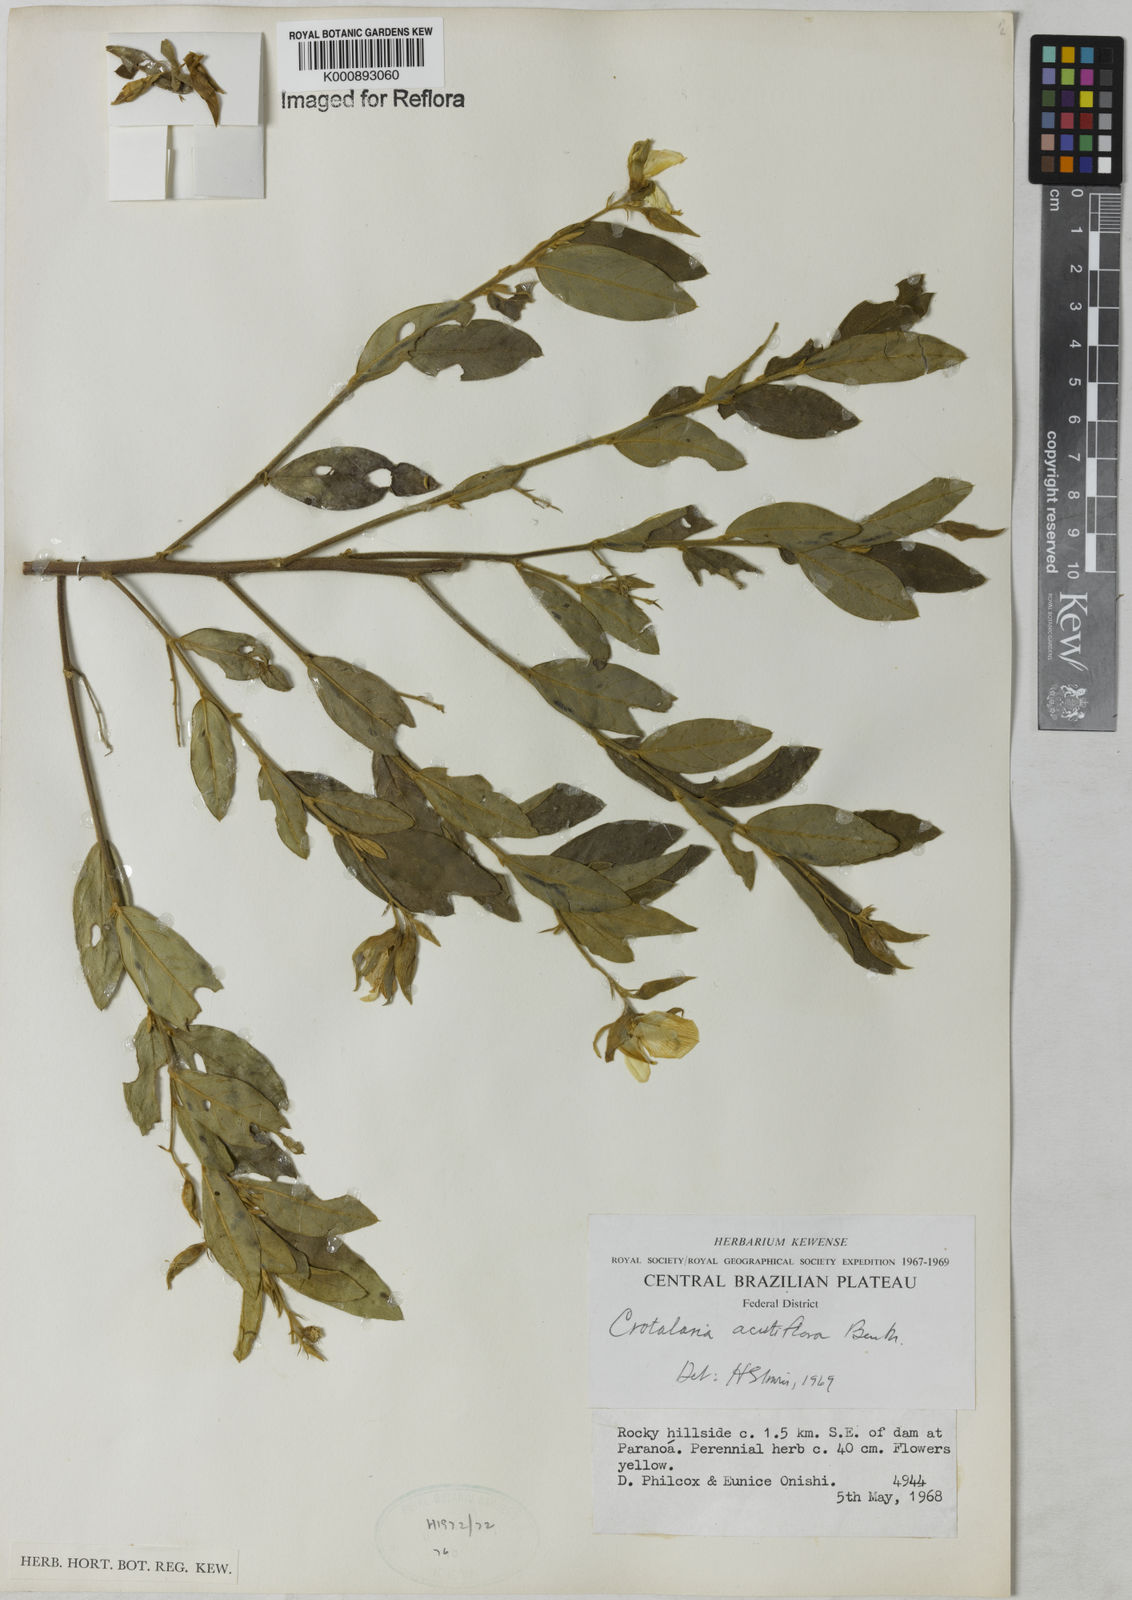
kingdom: Plantae
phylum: Tracheophyta
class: Magnoliopsida
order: Fabales
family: Fabaceae
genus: Crotalaria
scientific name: Crotalaria grandiflora
